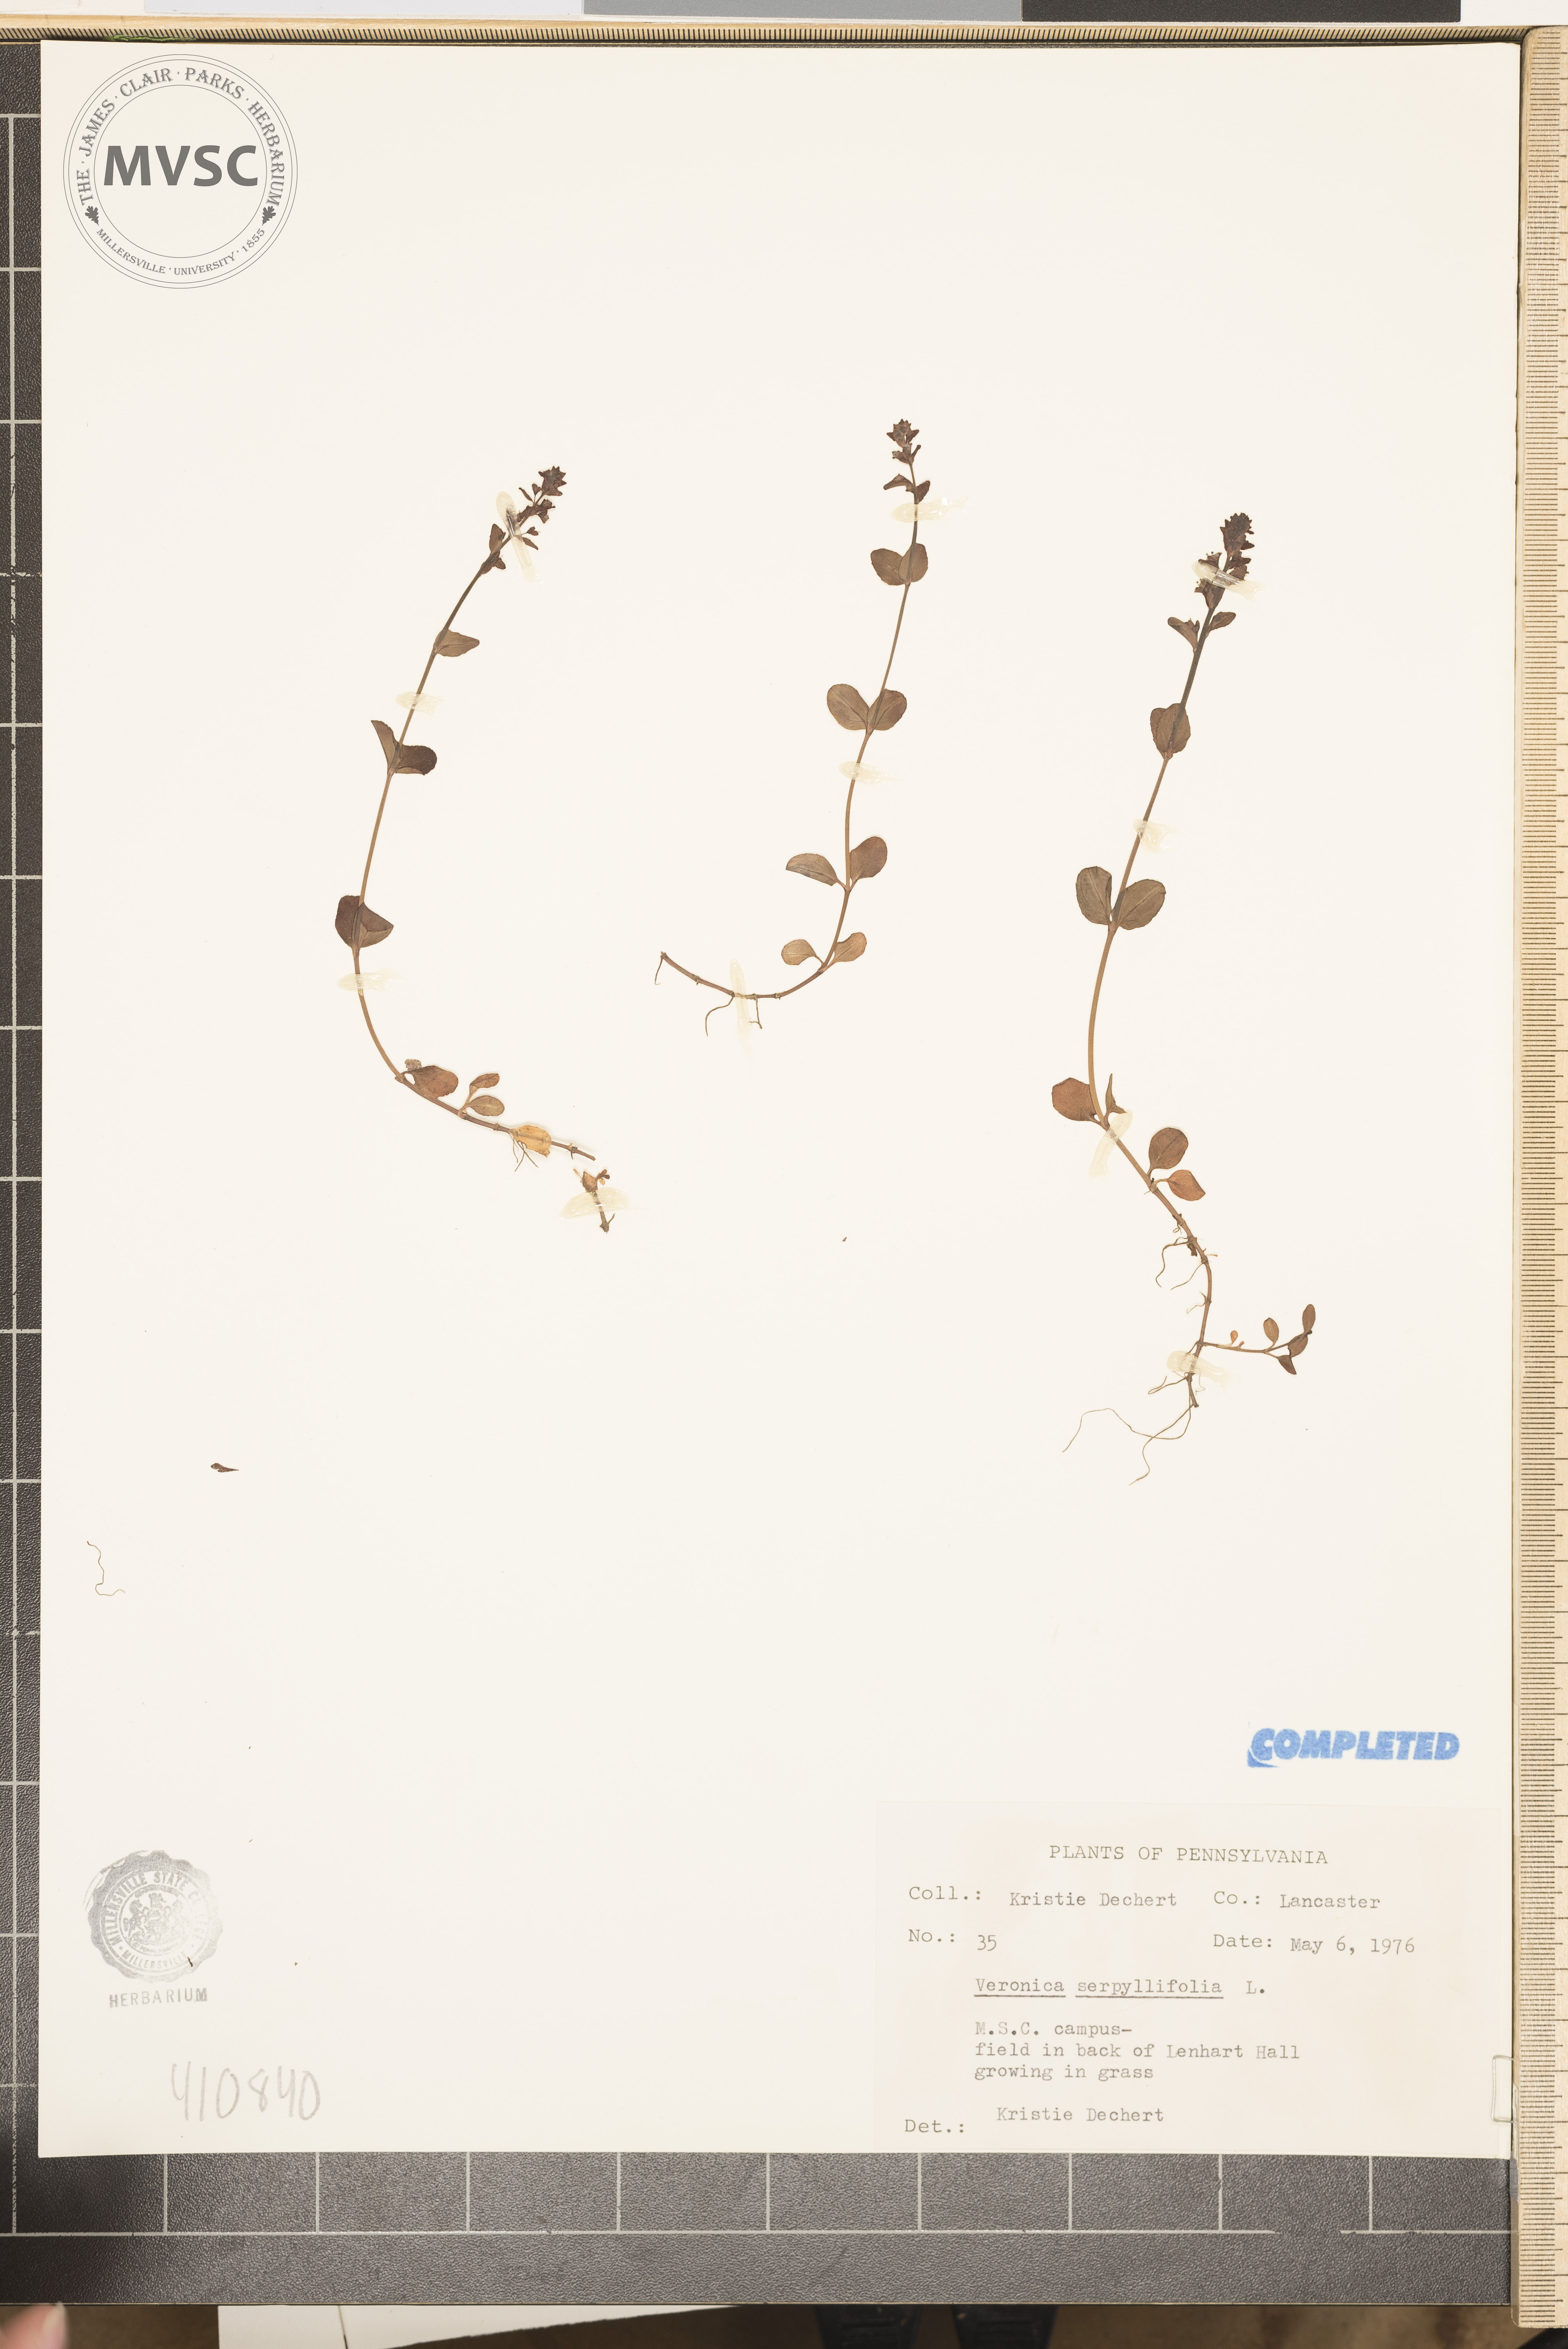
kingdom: Plantae
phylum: Tracheophyta
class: Magnoliopsida
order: Lamiales
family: Plantaginaceae
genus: Veronica
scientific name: Veronica serpyllifolia
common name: Thyme-leaved speedwell
